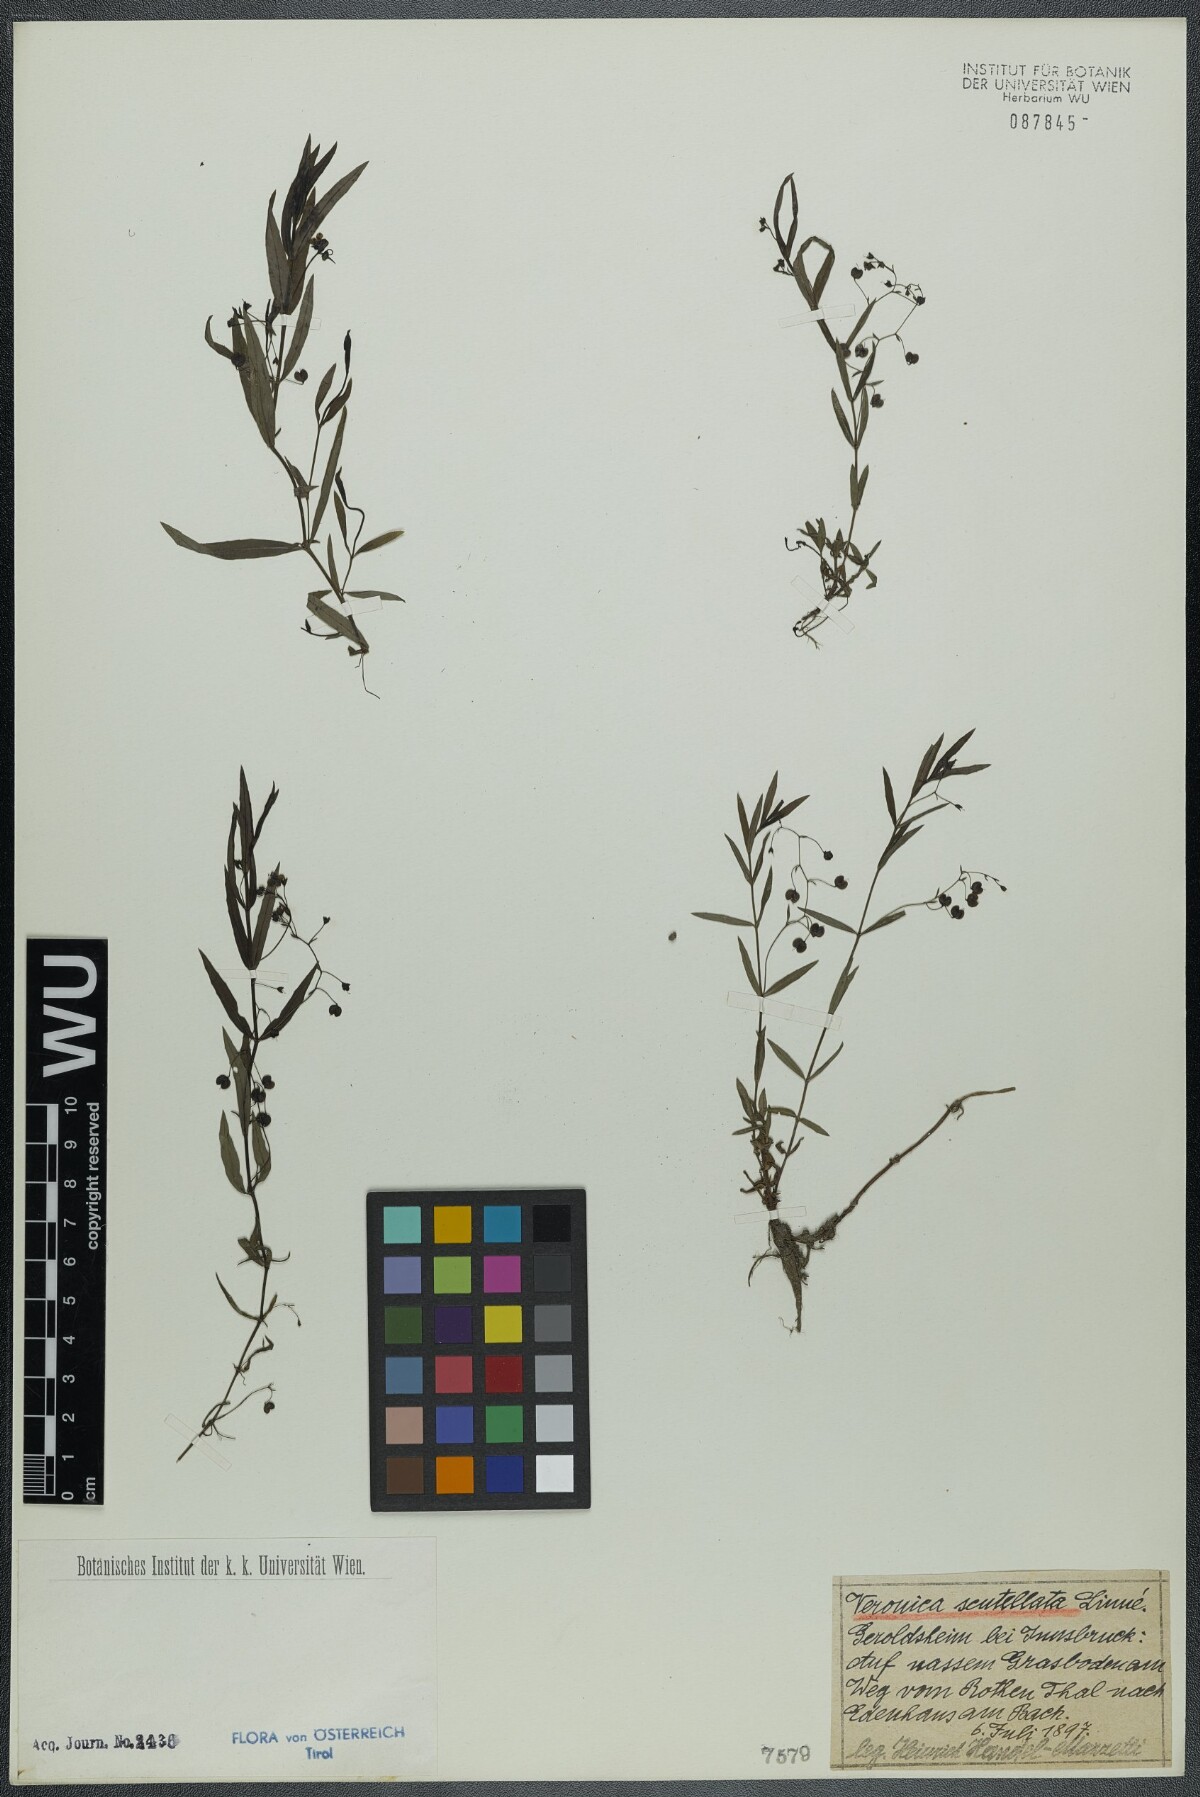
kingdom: Plantae
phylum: Tracheophyta
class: Magnoliopsida
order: Lamiales
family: Plantaginaceae
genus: Veronica
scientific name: Veronica scutellata
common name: Marsh speedwell
